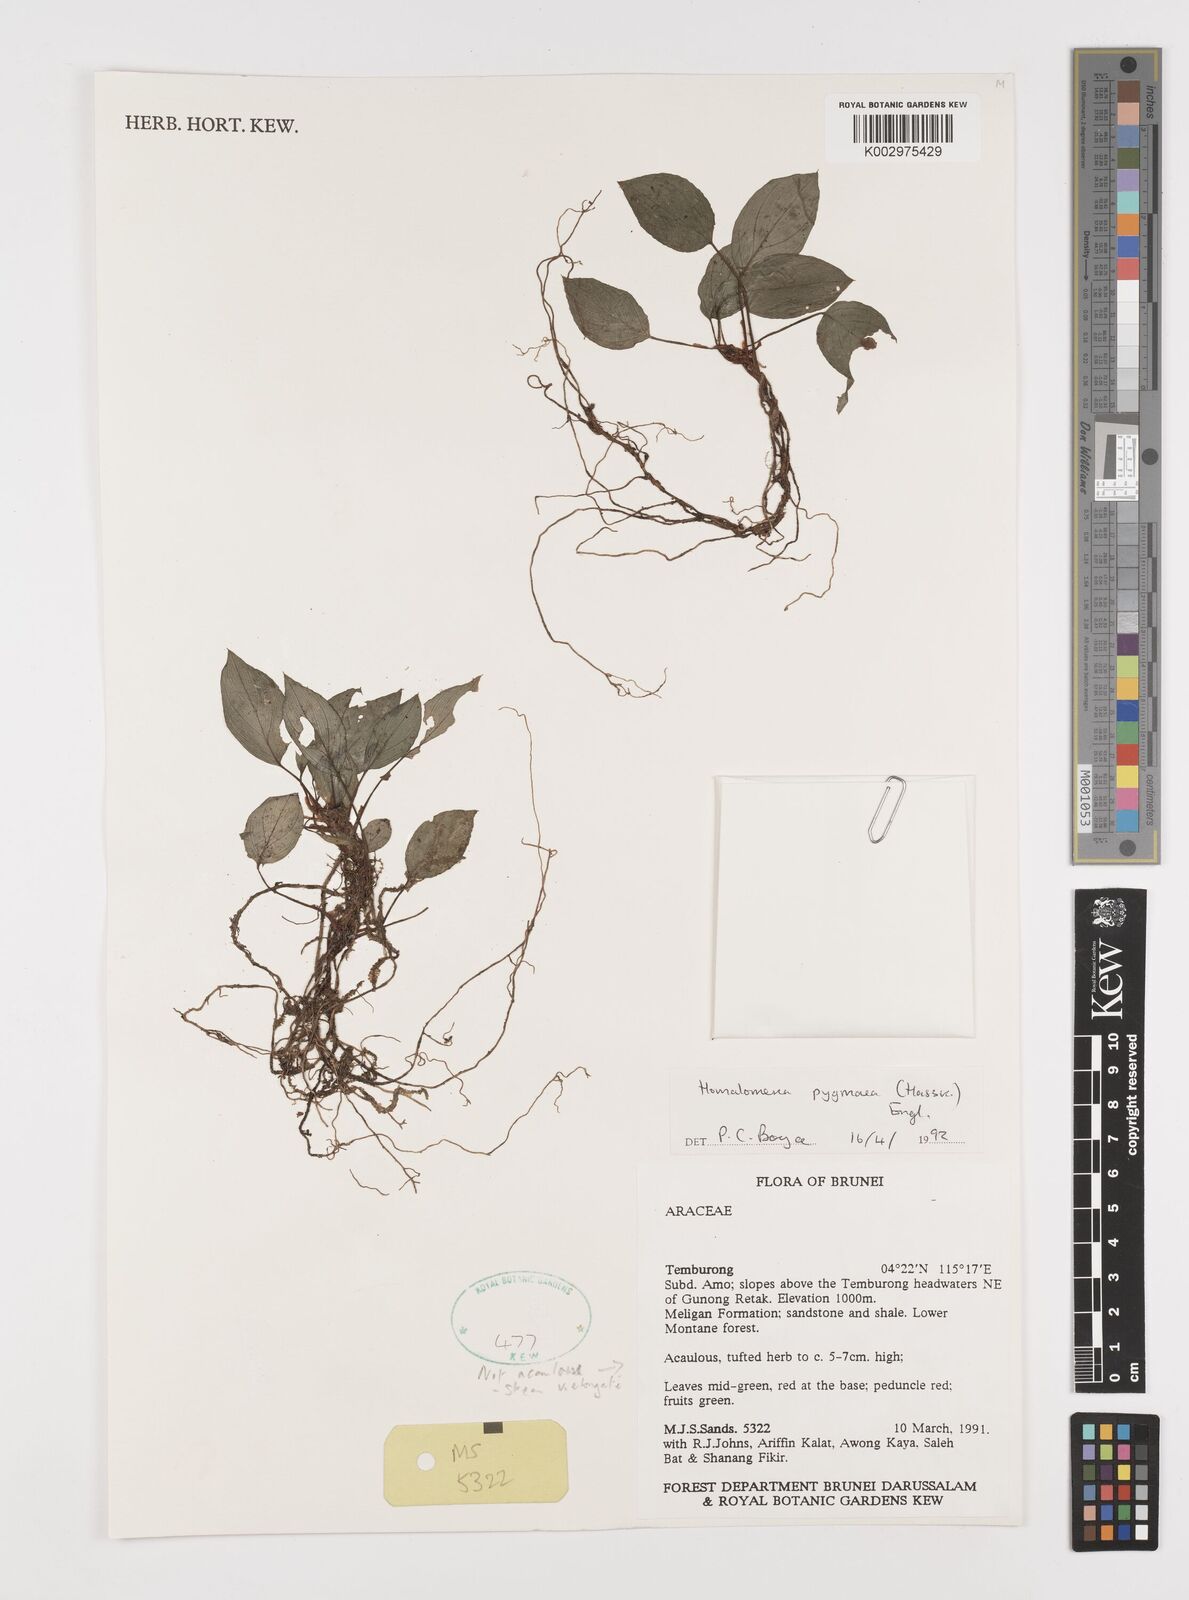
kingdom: Plantae
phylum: Tracheophyta
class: Liliopsida
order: Alismatales
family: Araceae
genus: Homalomena
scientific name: Homalomena humilis
